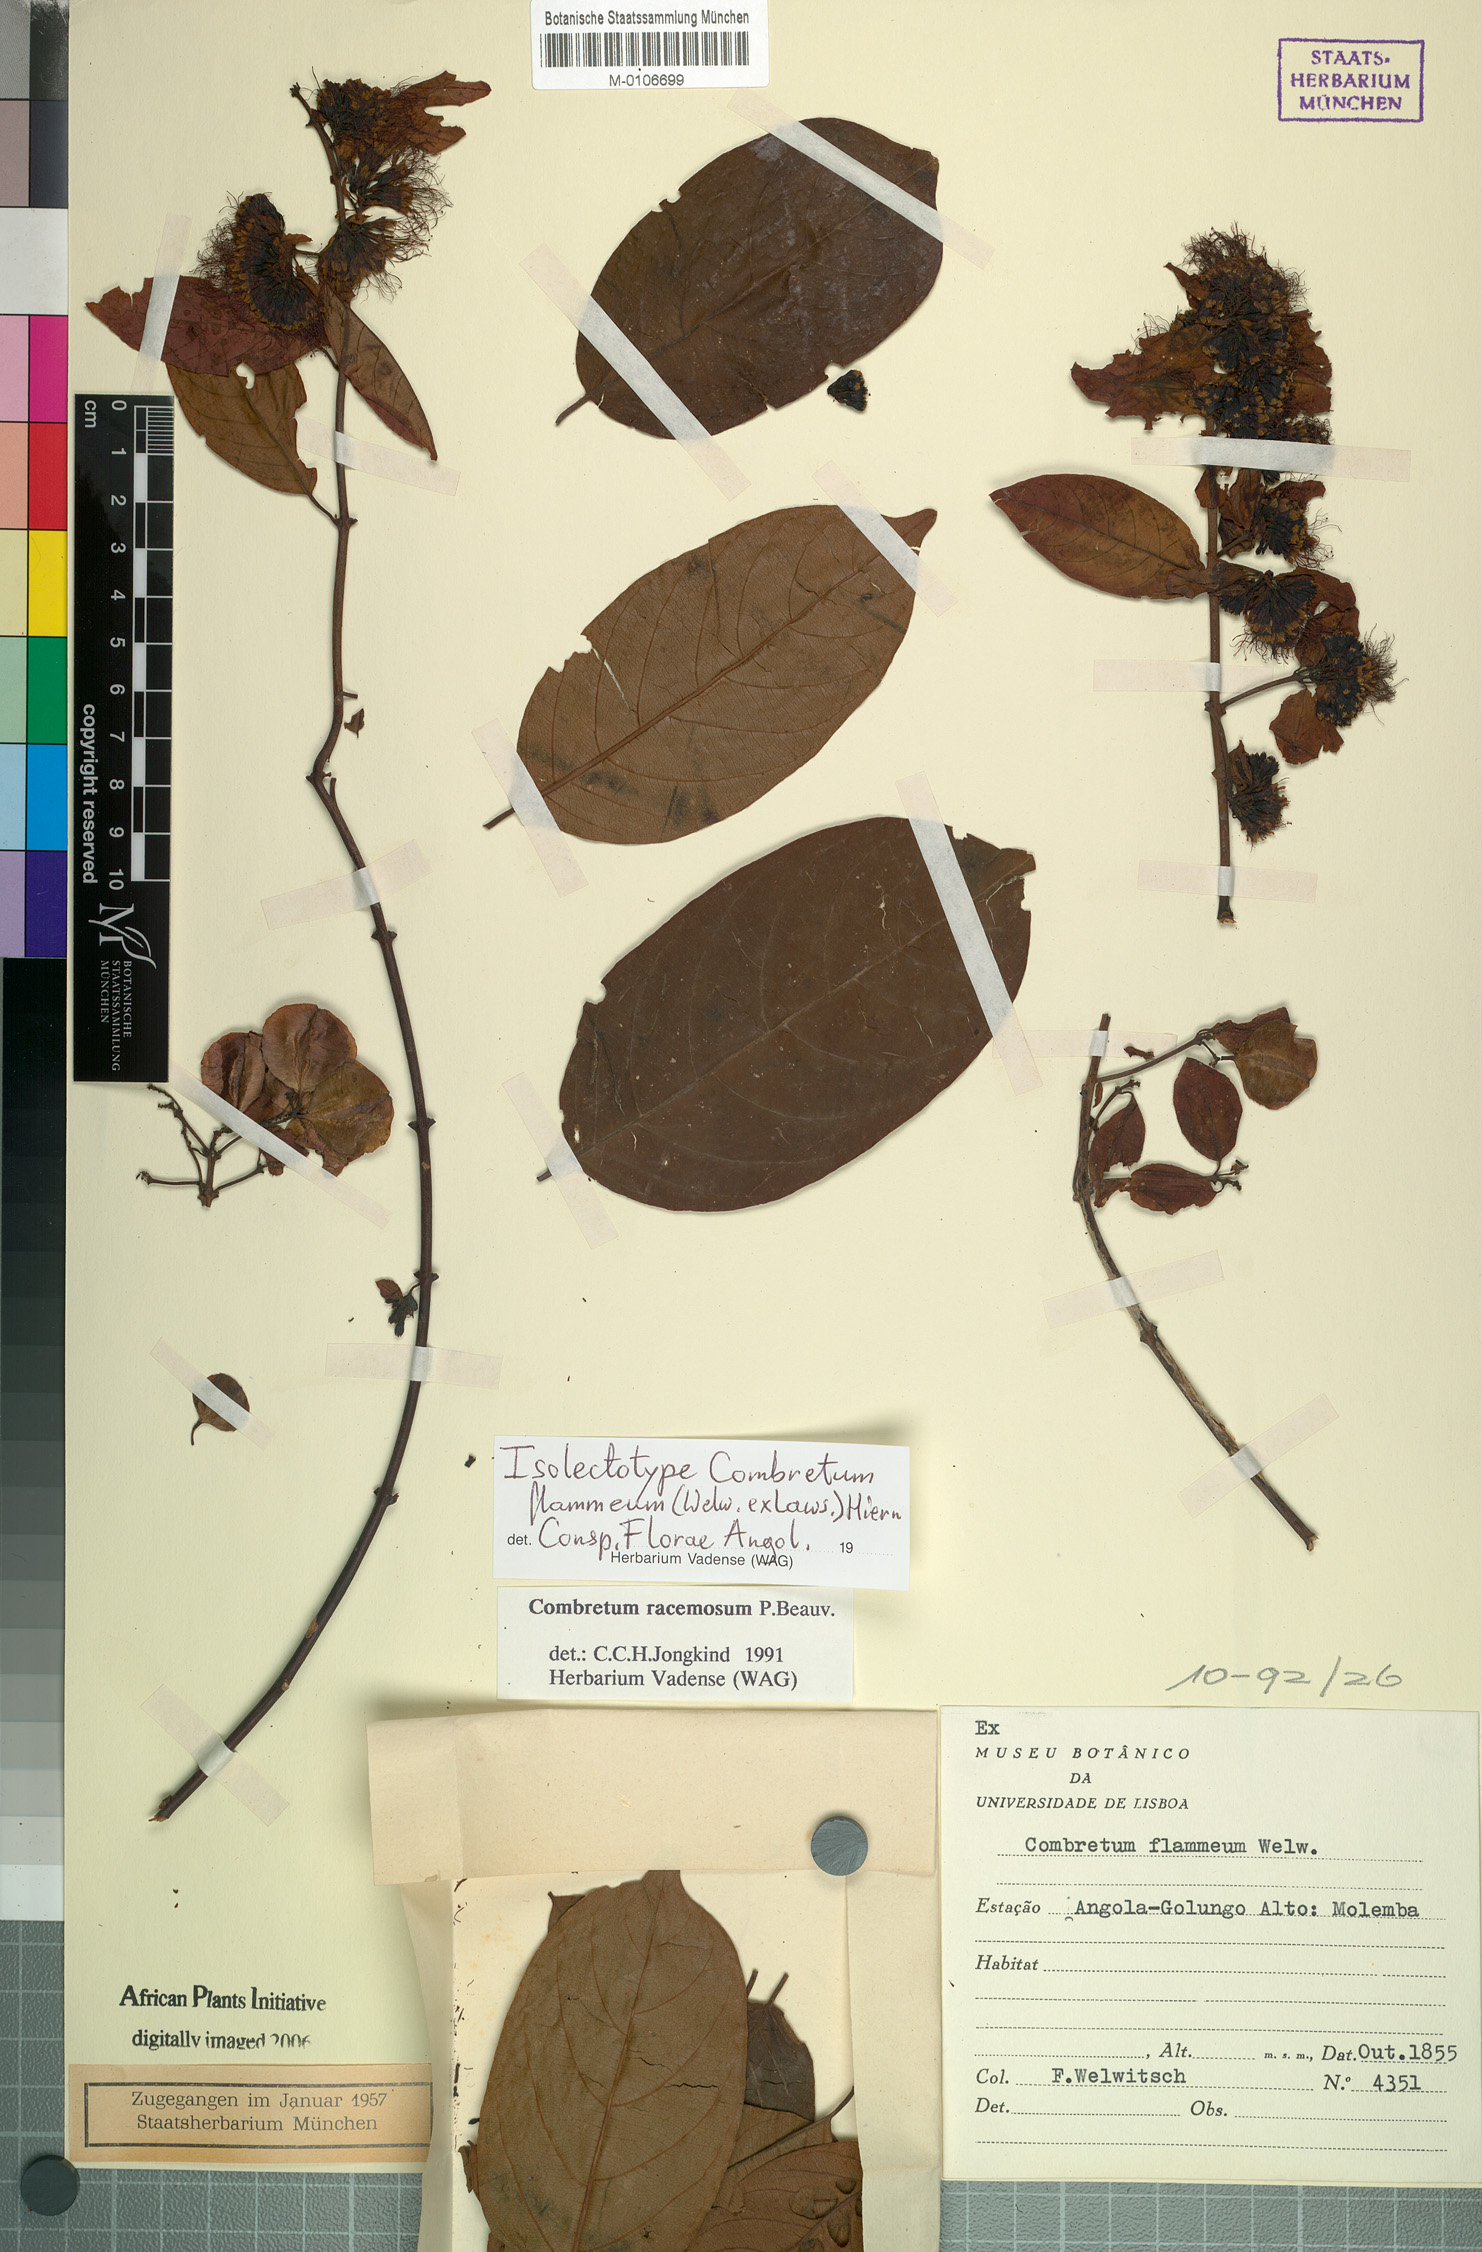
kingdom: Plantae
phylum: Tracheophyta
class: Magnoliopsida
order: Myrtales
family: Combretaceae
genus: Combretum
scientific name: Combretum racemosum
